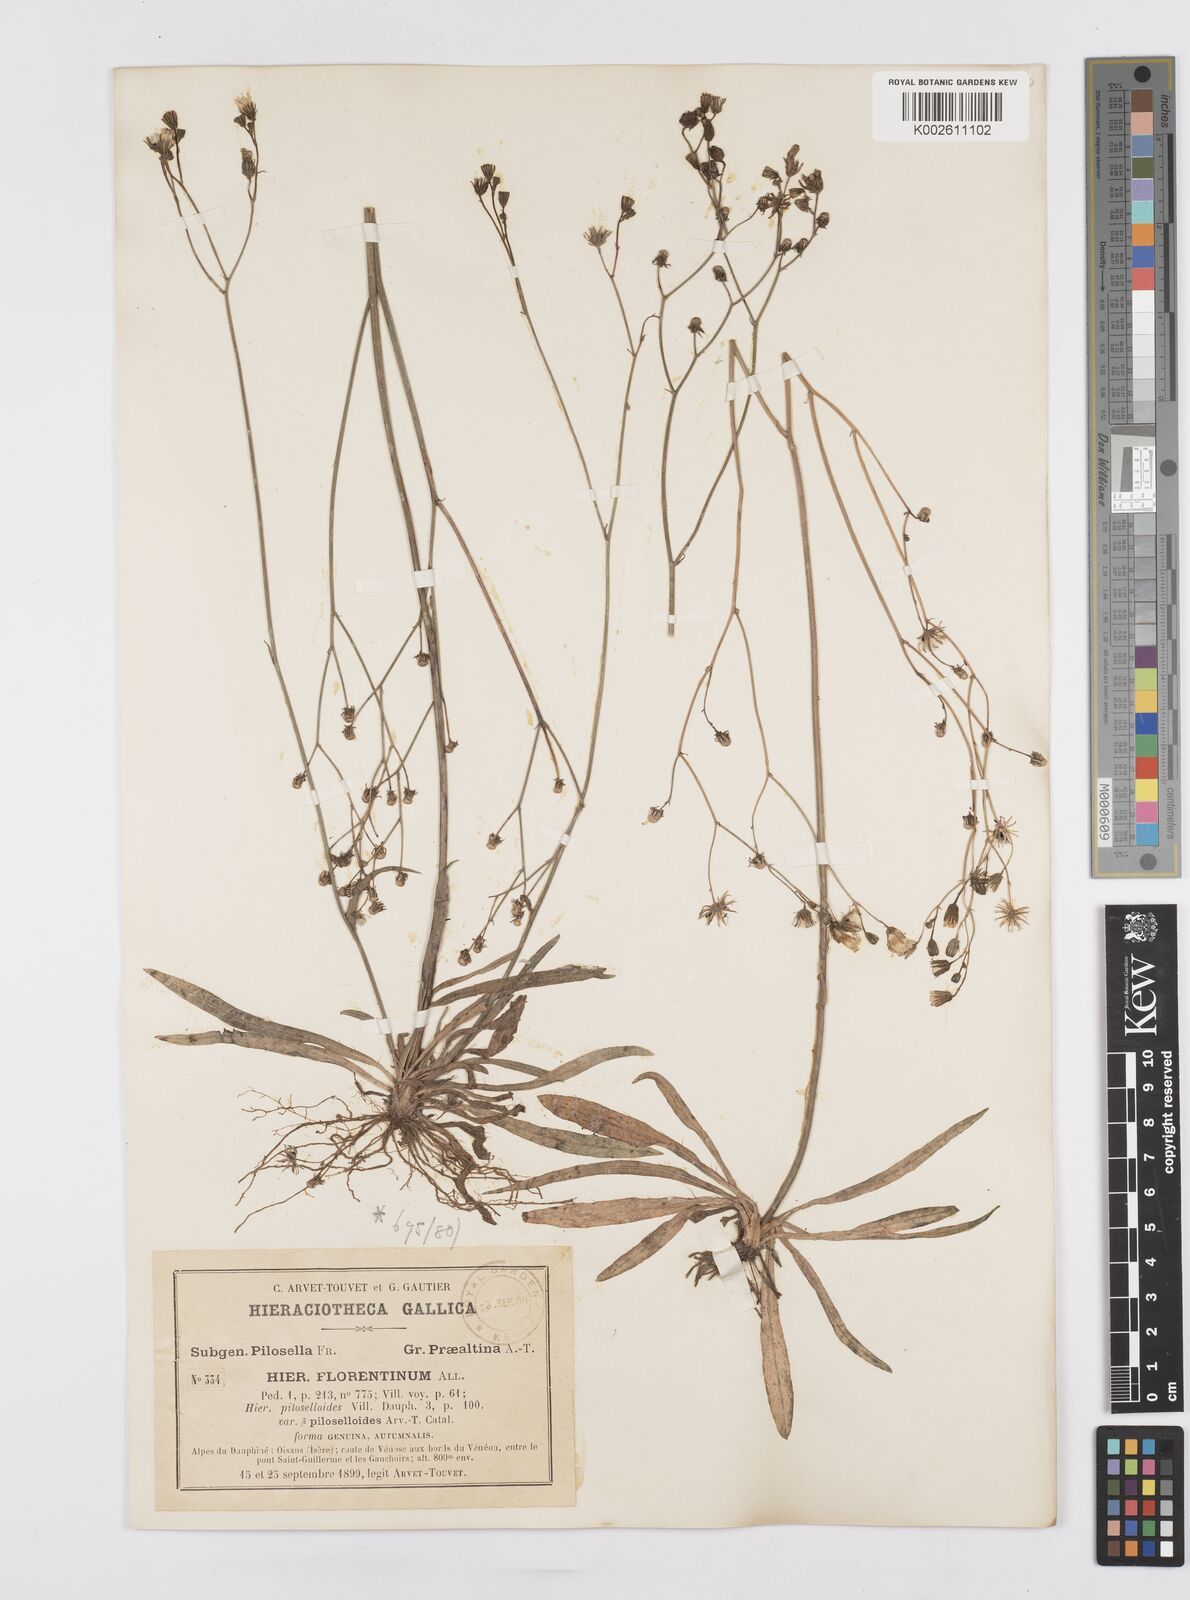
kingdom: Plantae
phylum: Tracheophyta
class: Magnoliopsida
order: Asterales
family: Asteraceae
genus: Pilosella
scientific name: Pilosella piloselloides
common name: Glaucous king-devil
